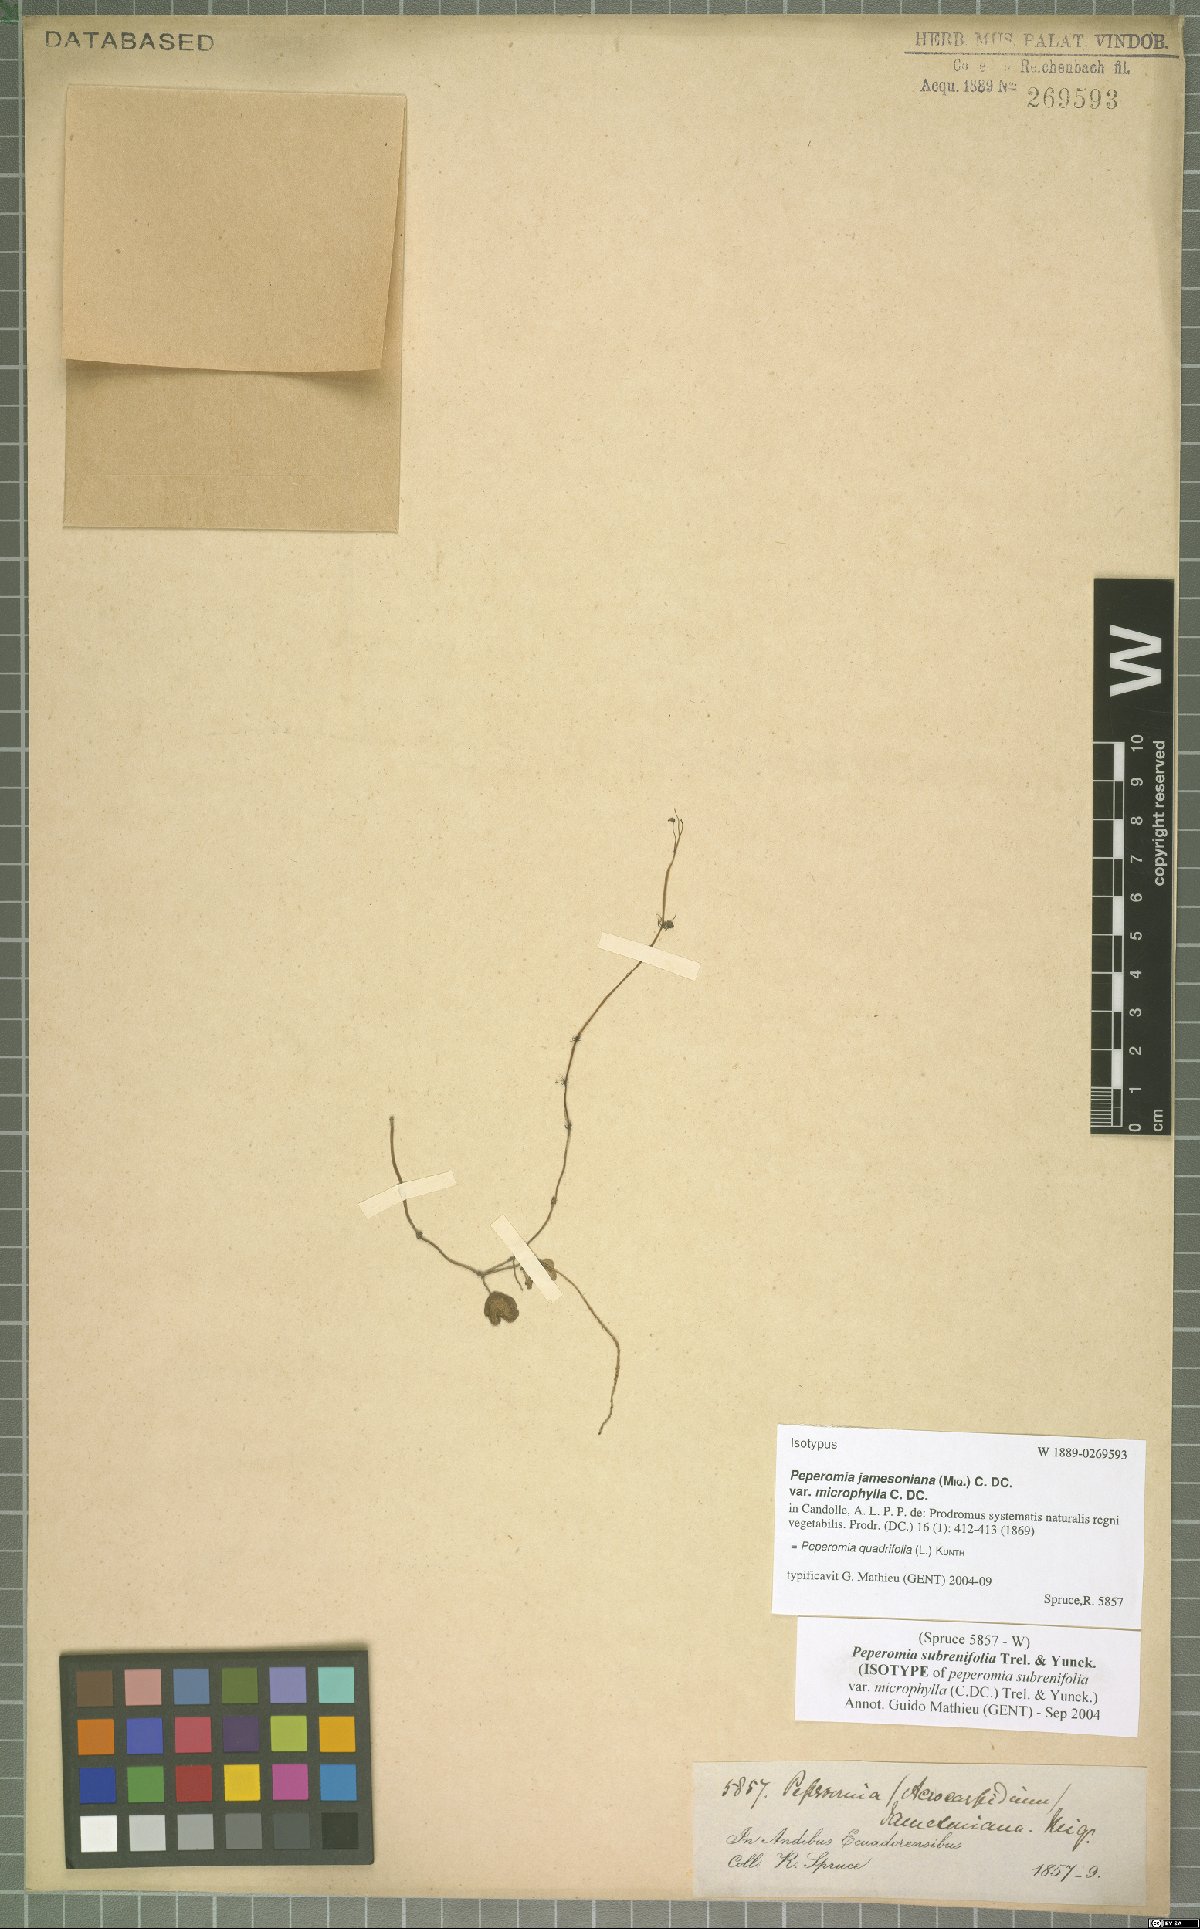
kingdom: Plantae
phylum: Tracheophyta
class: Magnoliopsida
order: Piperales
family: Piperaceae
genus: Peperomia
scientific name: Peperomia quadrifolia
